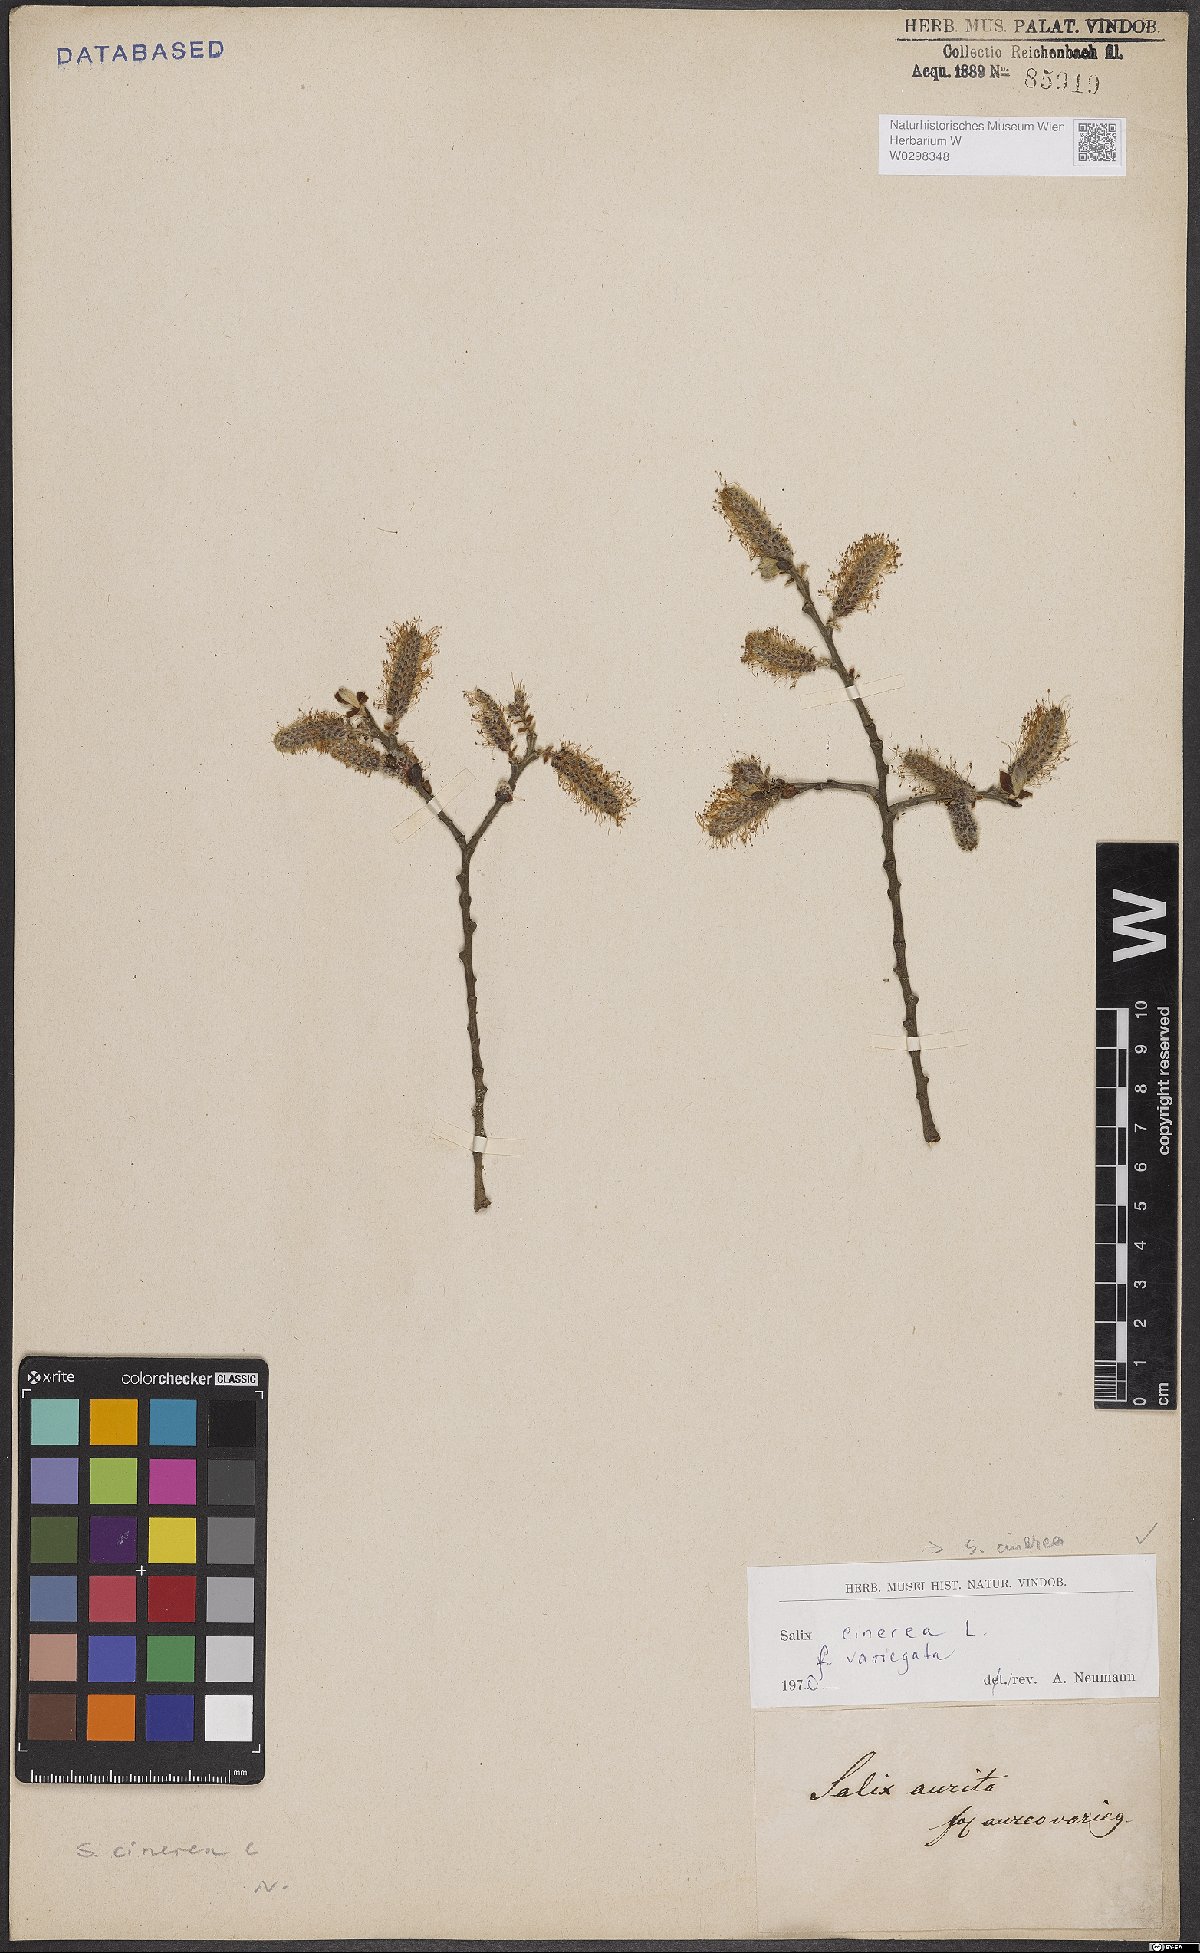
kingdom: Plantae
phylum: Tracheophyta
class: Magnoliopsida
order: Malpighiales
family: Salicaceae
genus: Salix
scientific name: Salix cinerea
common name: Common sallow
